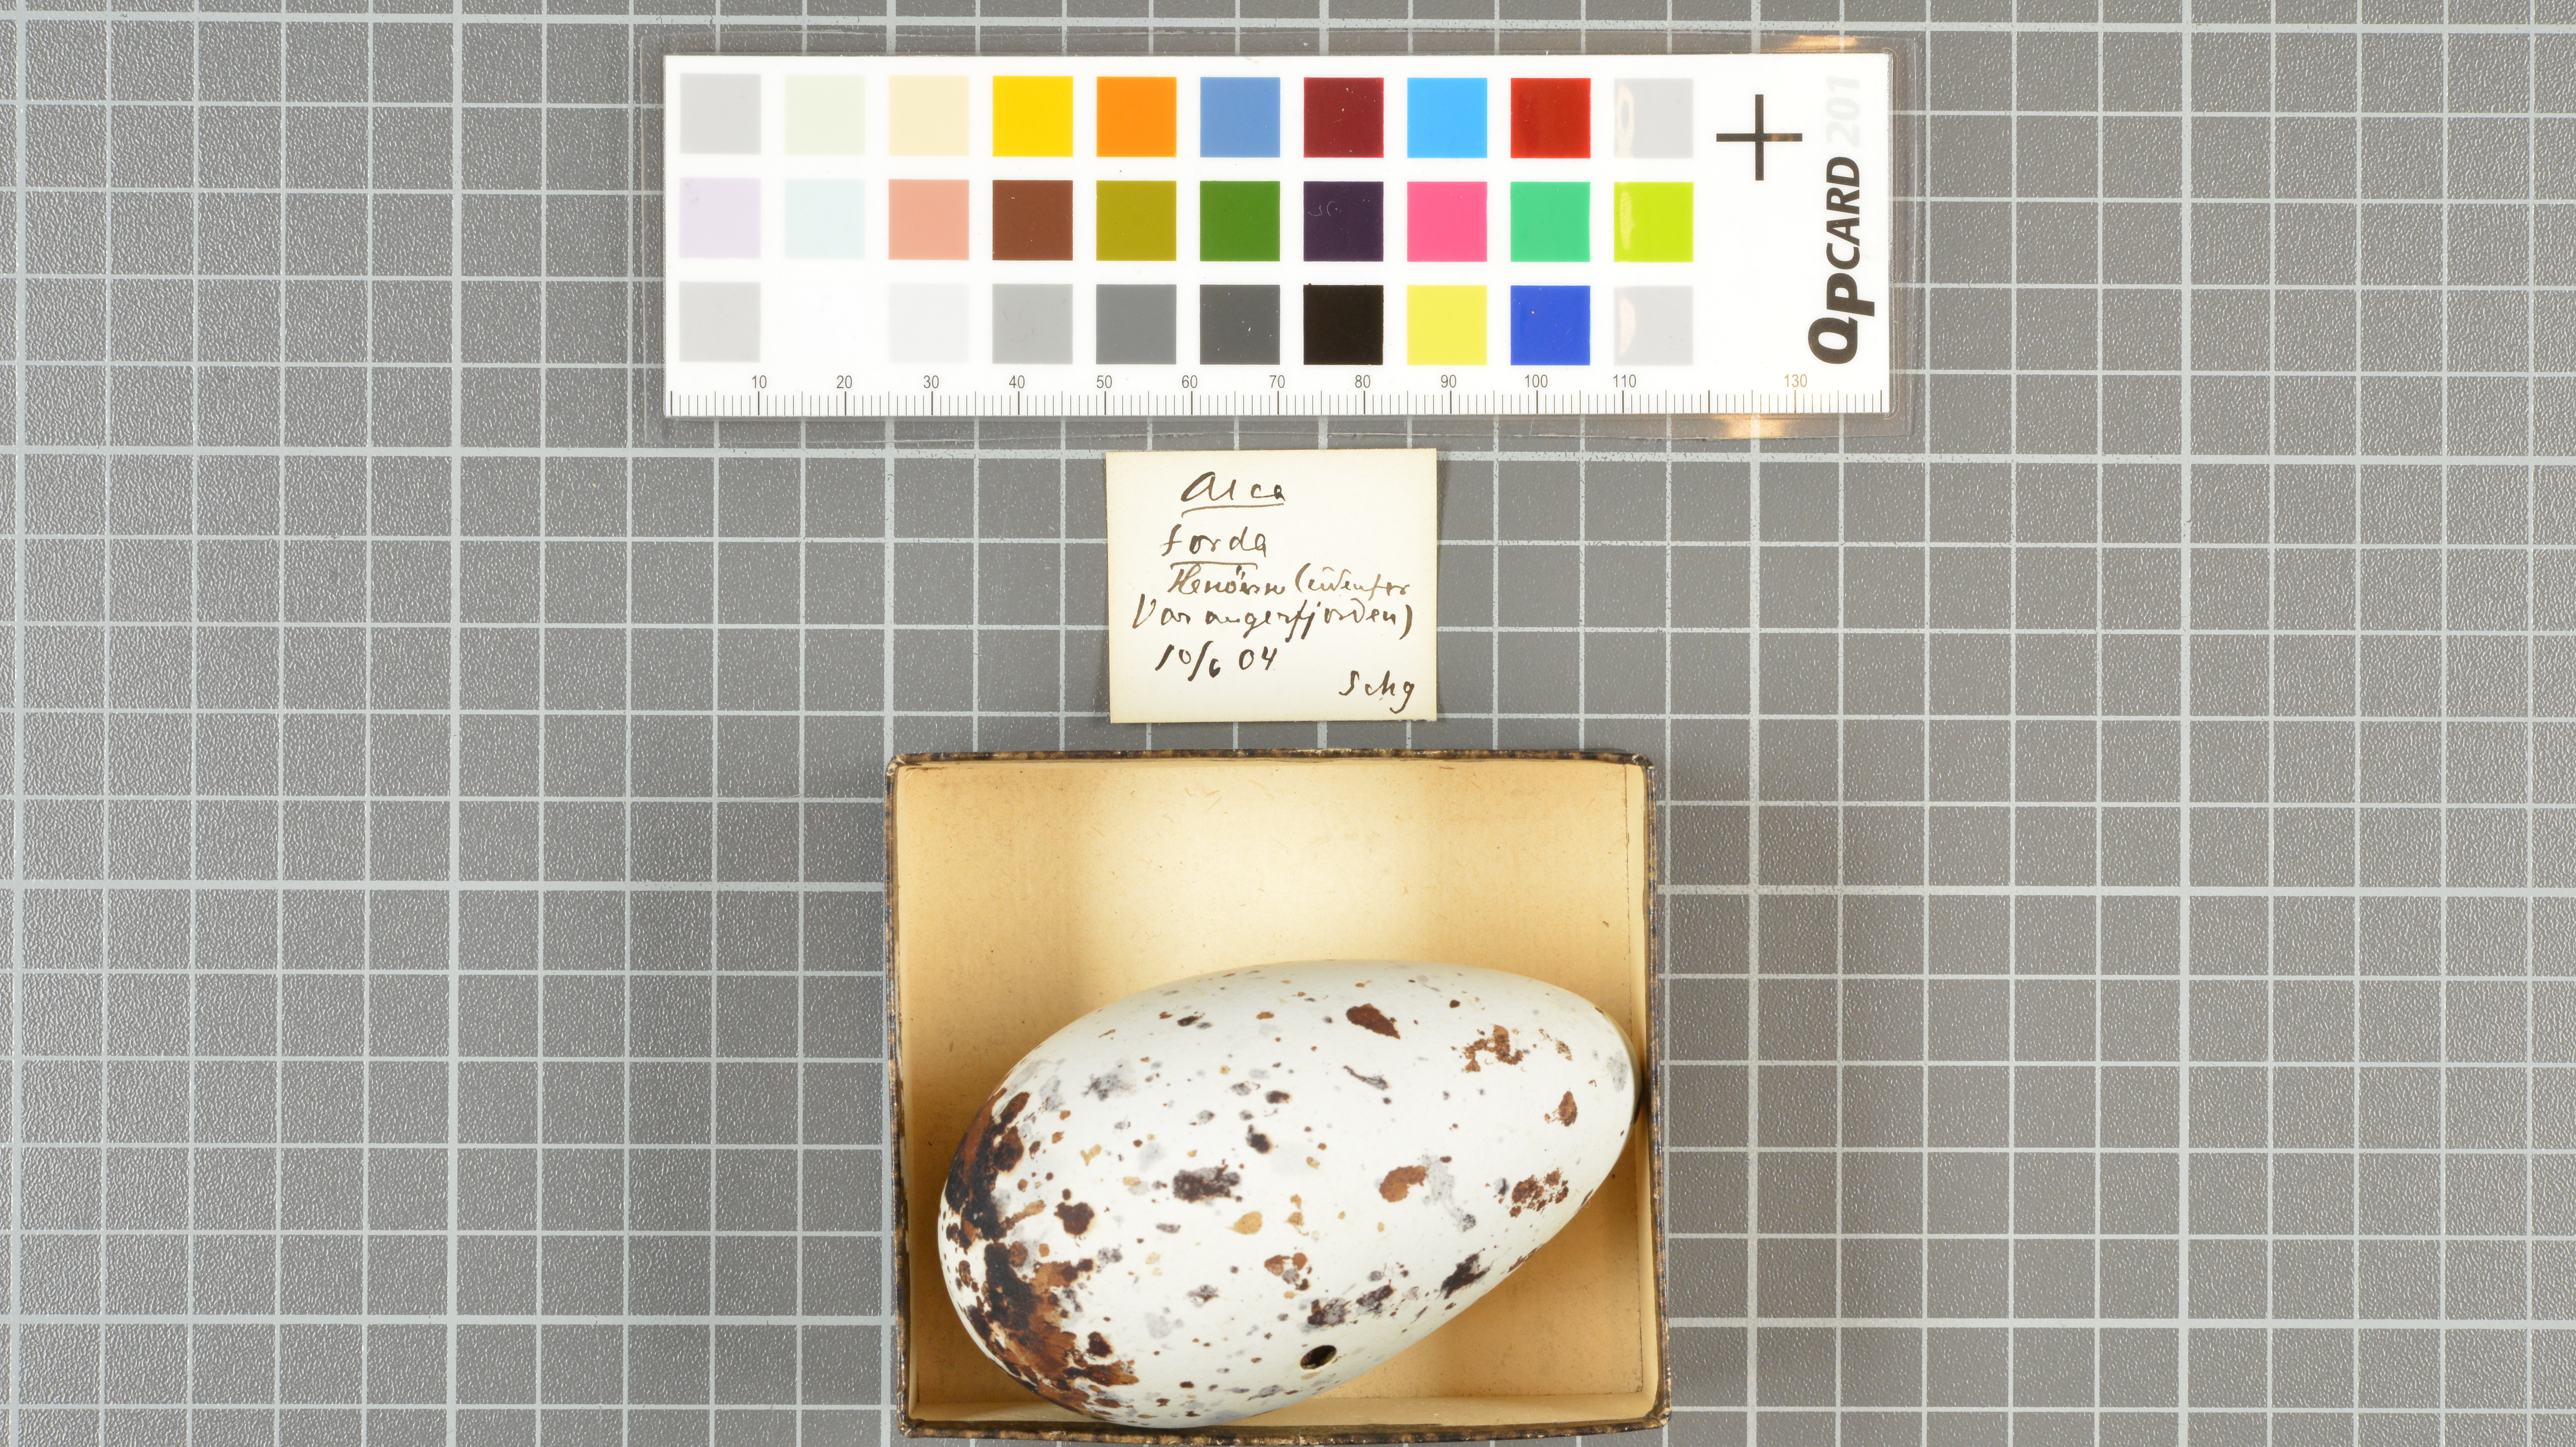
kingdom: Animalia
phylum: Chordata
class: Aves
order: Charadriiformes
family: Alcidae
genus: Alca
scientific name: Alca torda
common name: Razorbill
